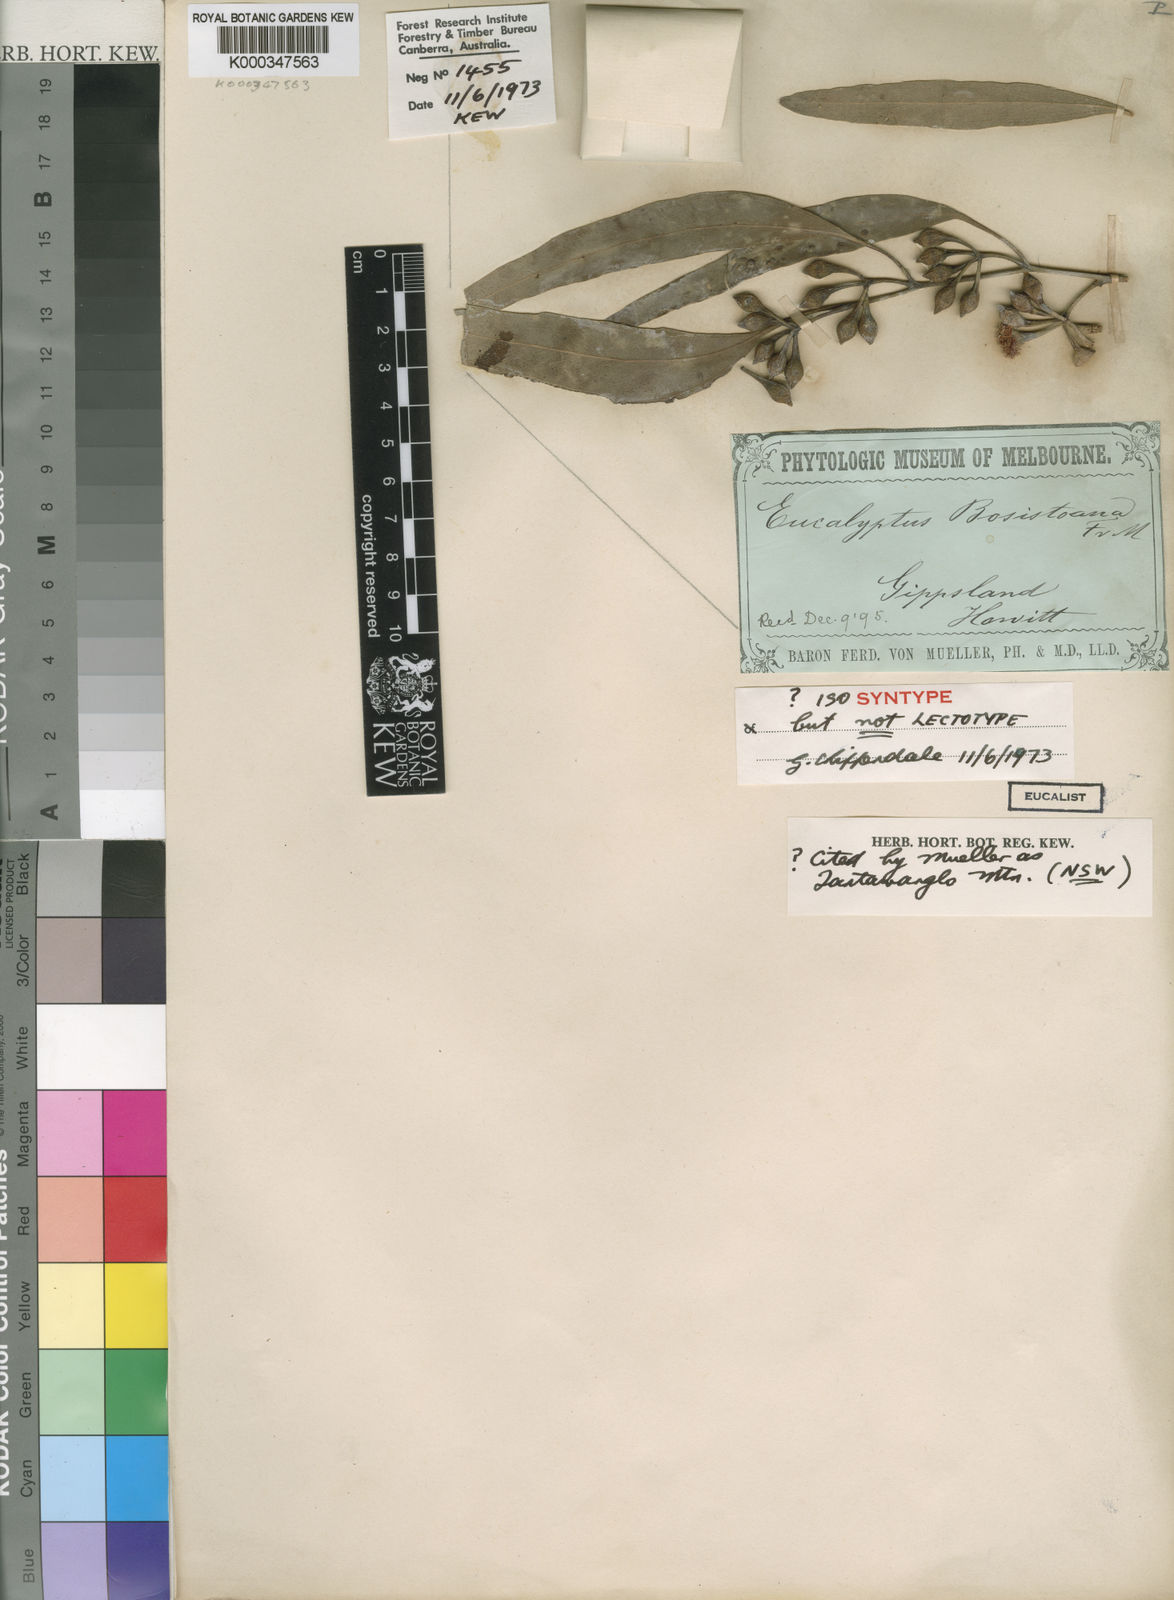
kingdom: Plantae
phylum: Tracheophyta
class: Magnoliopsida
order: Myrtales
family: Myrtaceae
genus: Eucalyptus
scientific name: Eucalyptus bosistoana
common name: Bosisto's-box
